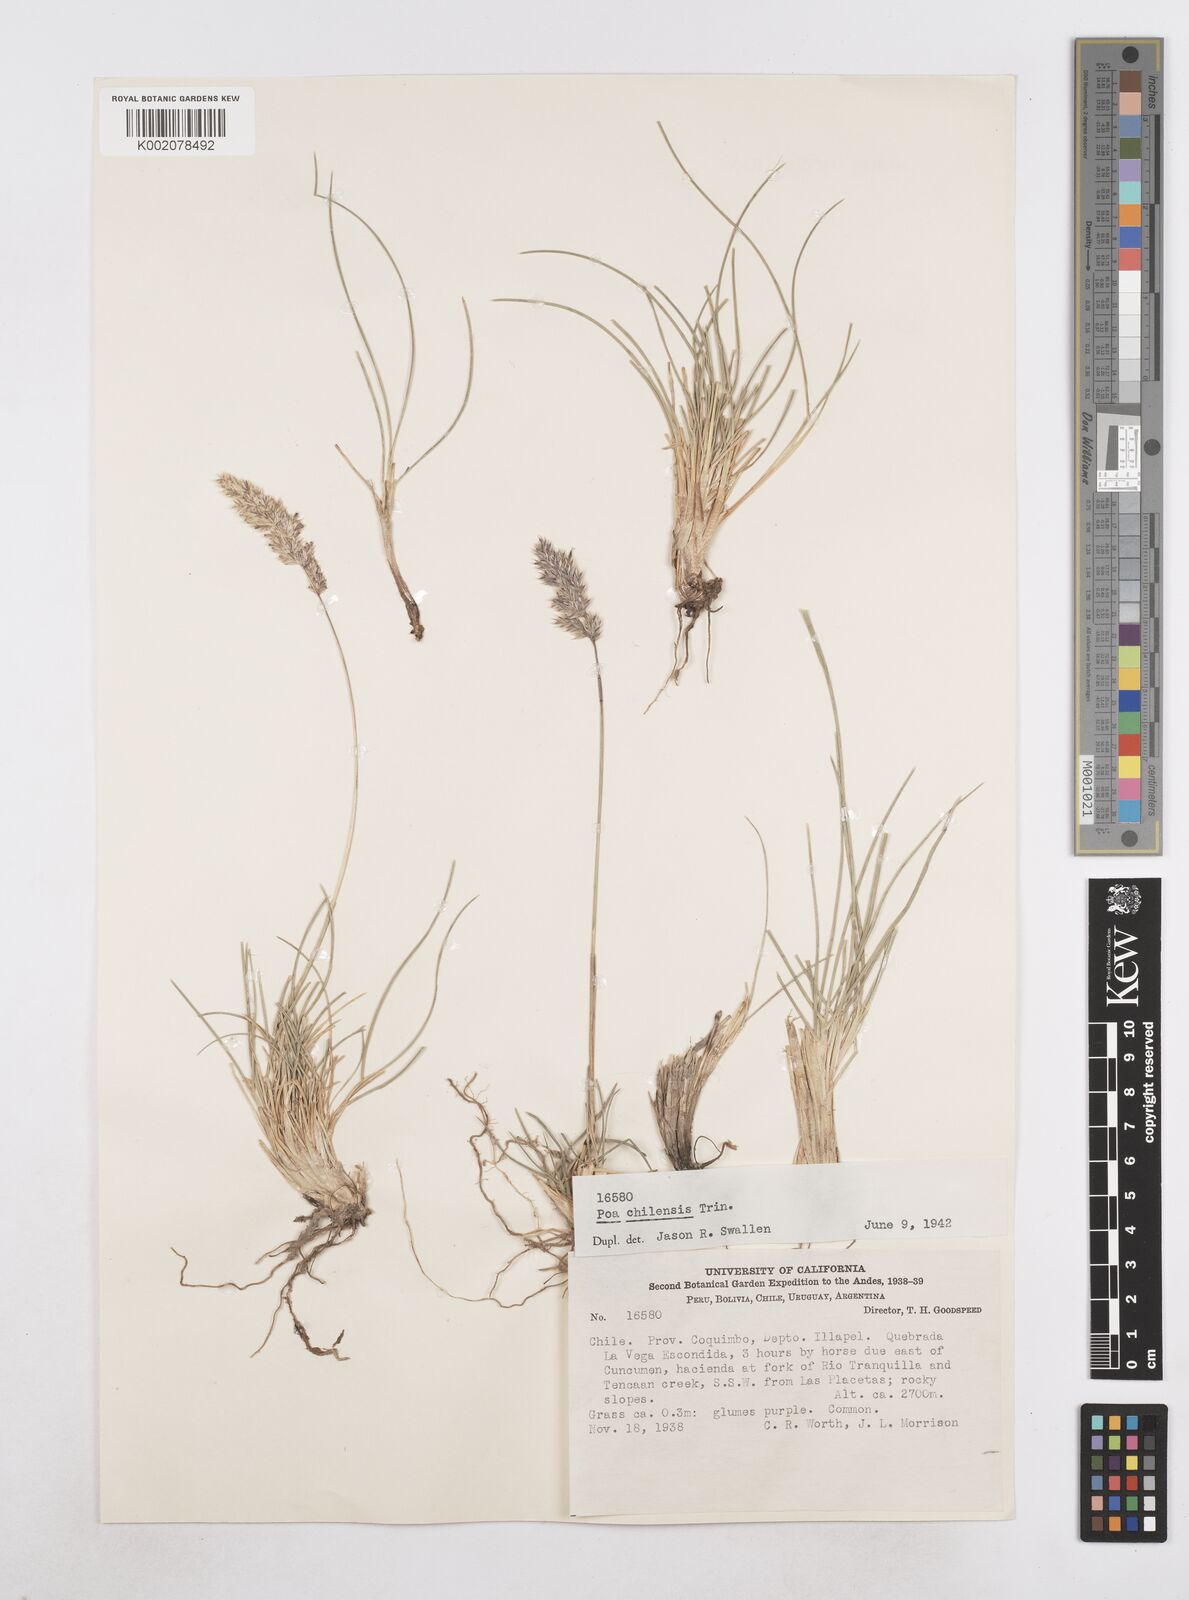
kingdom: Plantae
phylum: Tracheophyta
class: Liliopsida
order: Poales
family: Poaceae
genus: Poa
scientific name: Poa denudata
